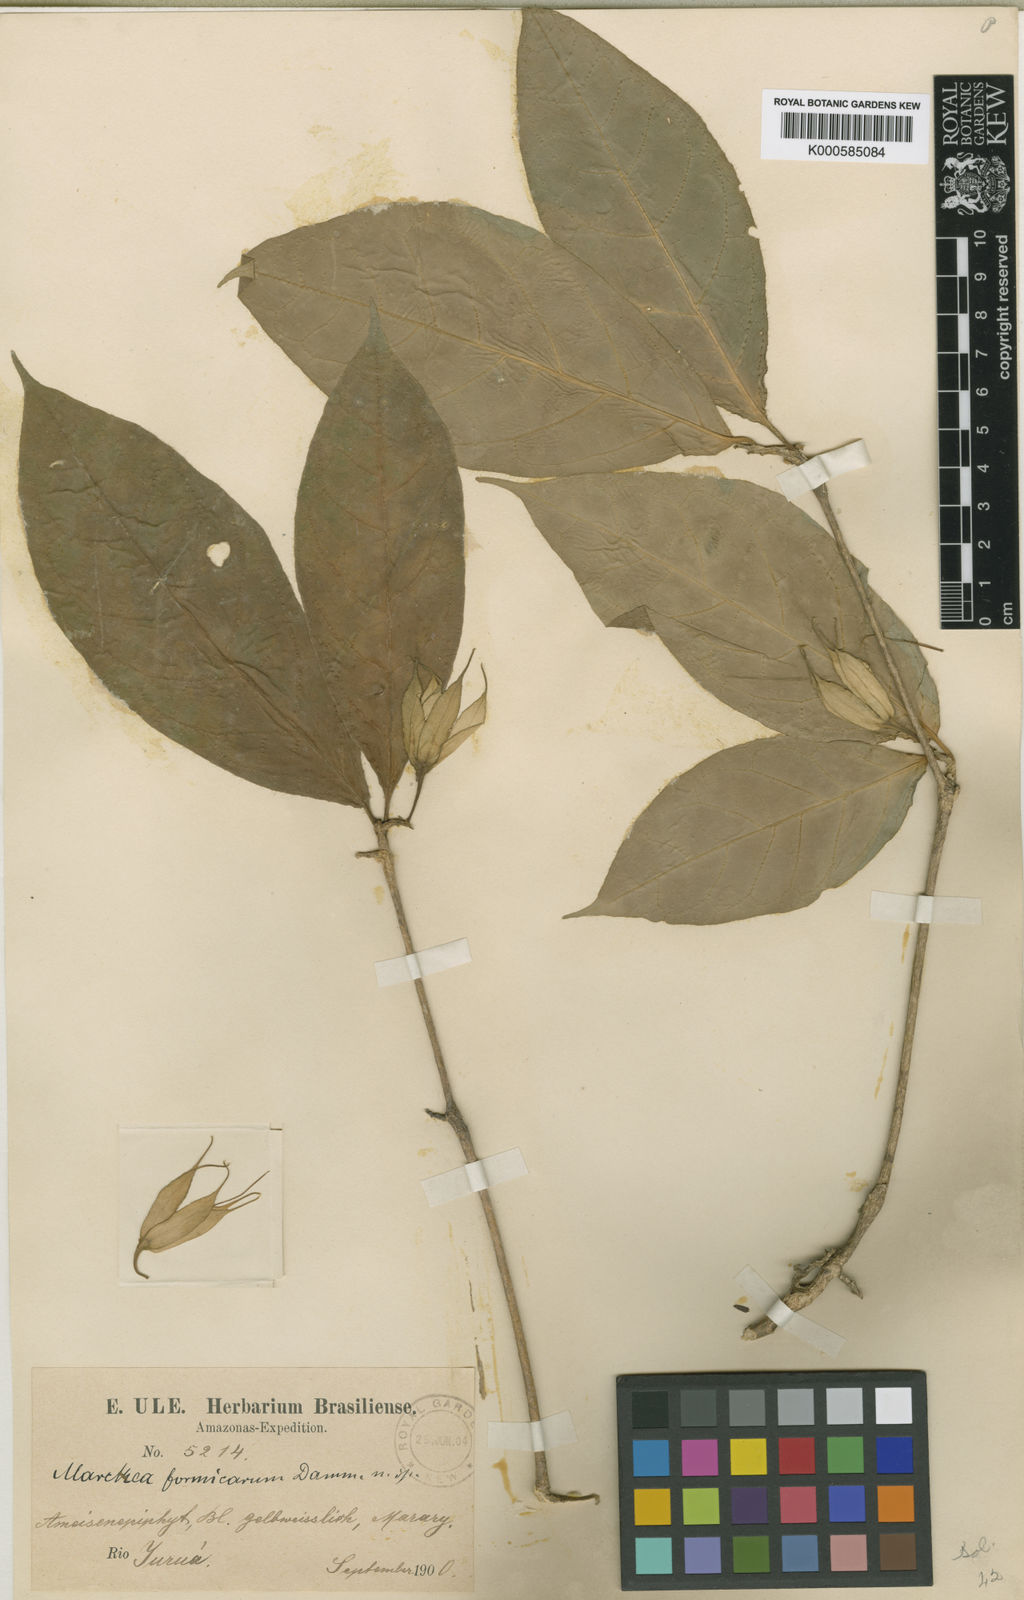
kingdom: Plantae
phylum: Tracheophyta
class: Magnoliopsida
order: Solanales
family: Solanaceae
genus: Markea
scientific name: Markea formicarum
